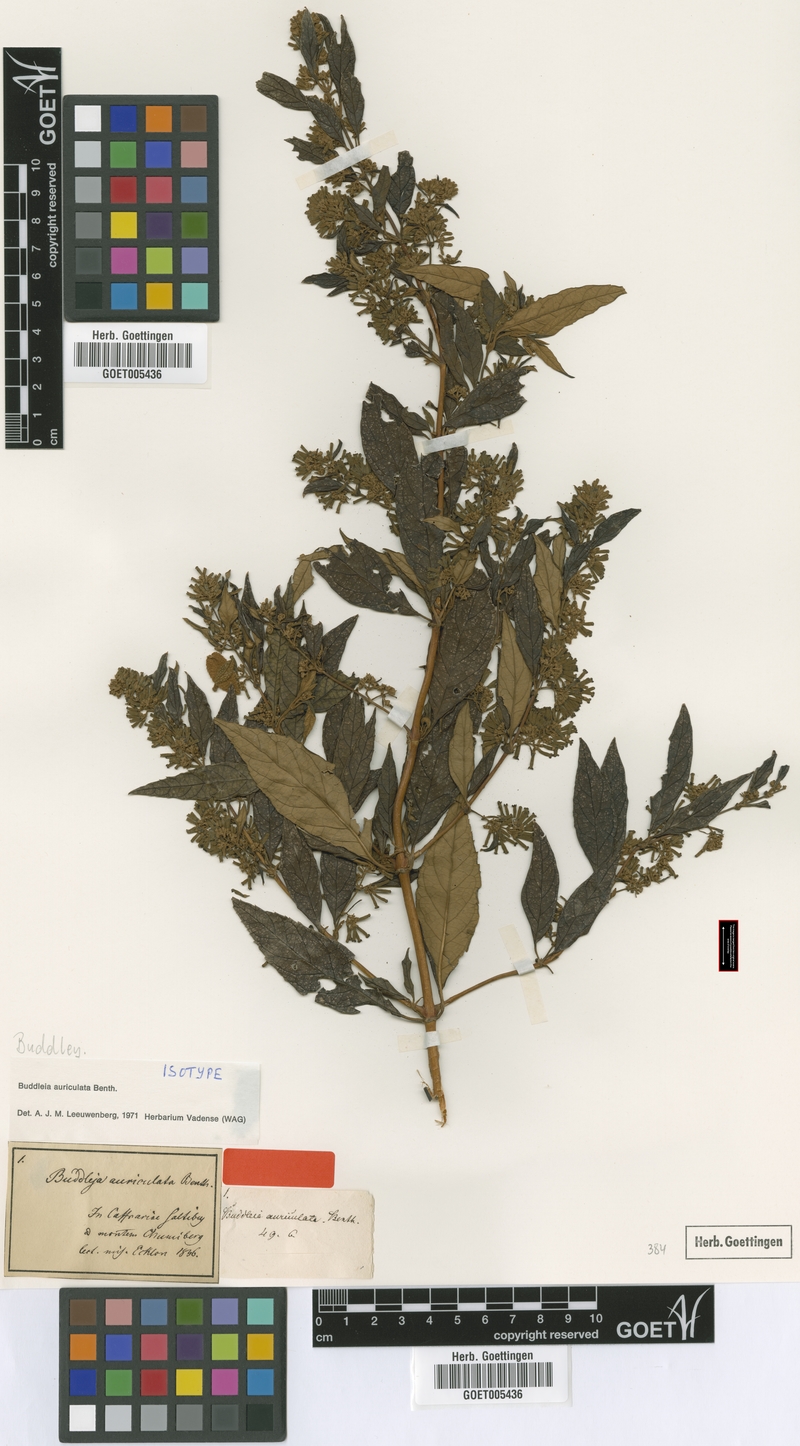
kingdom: Plantae
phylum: Tracheophyta
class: Magnoliopsida
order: Lamiales
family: Scrophulariaceae
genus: Buddleja
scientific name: Buddleja auriculata
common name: Weeping sagewood
